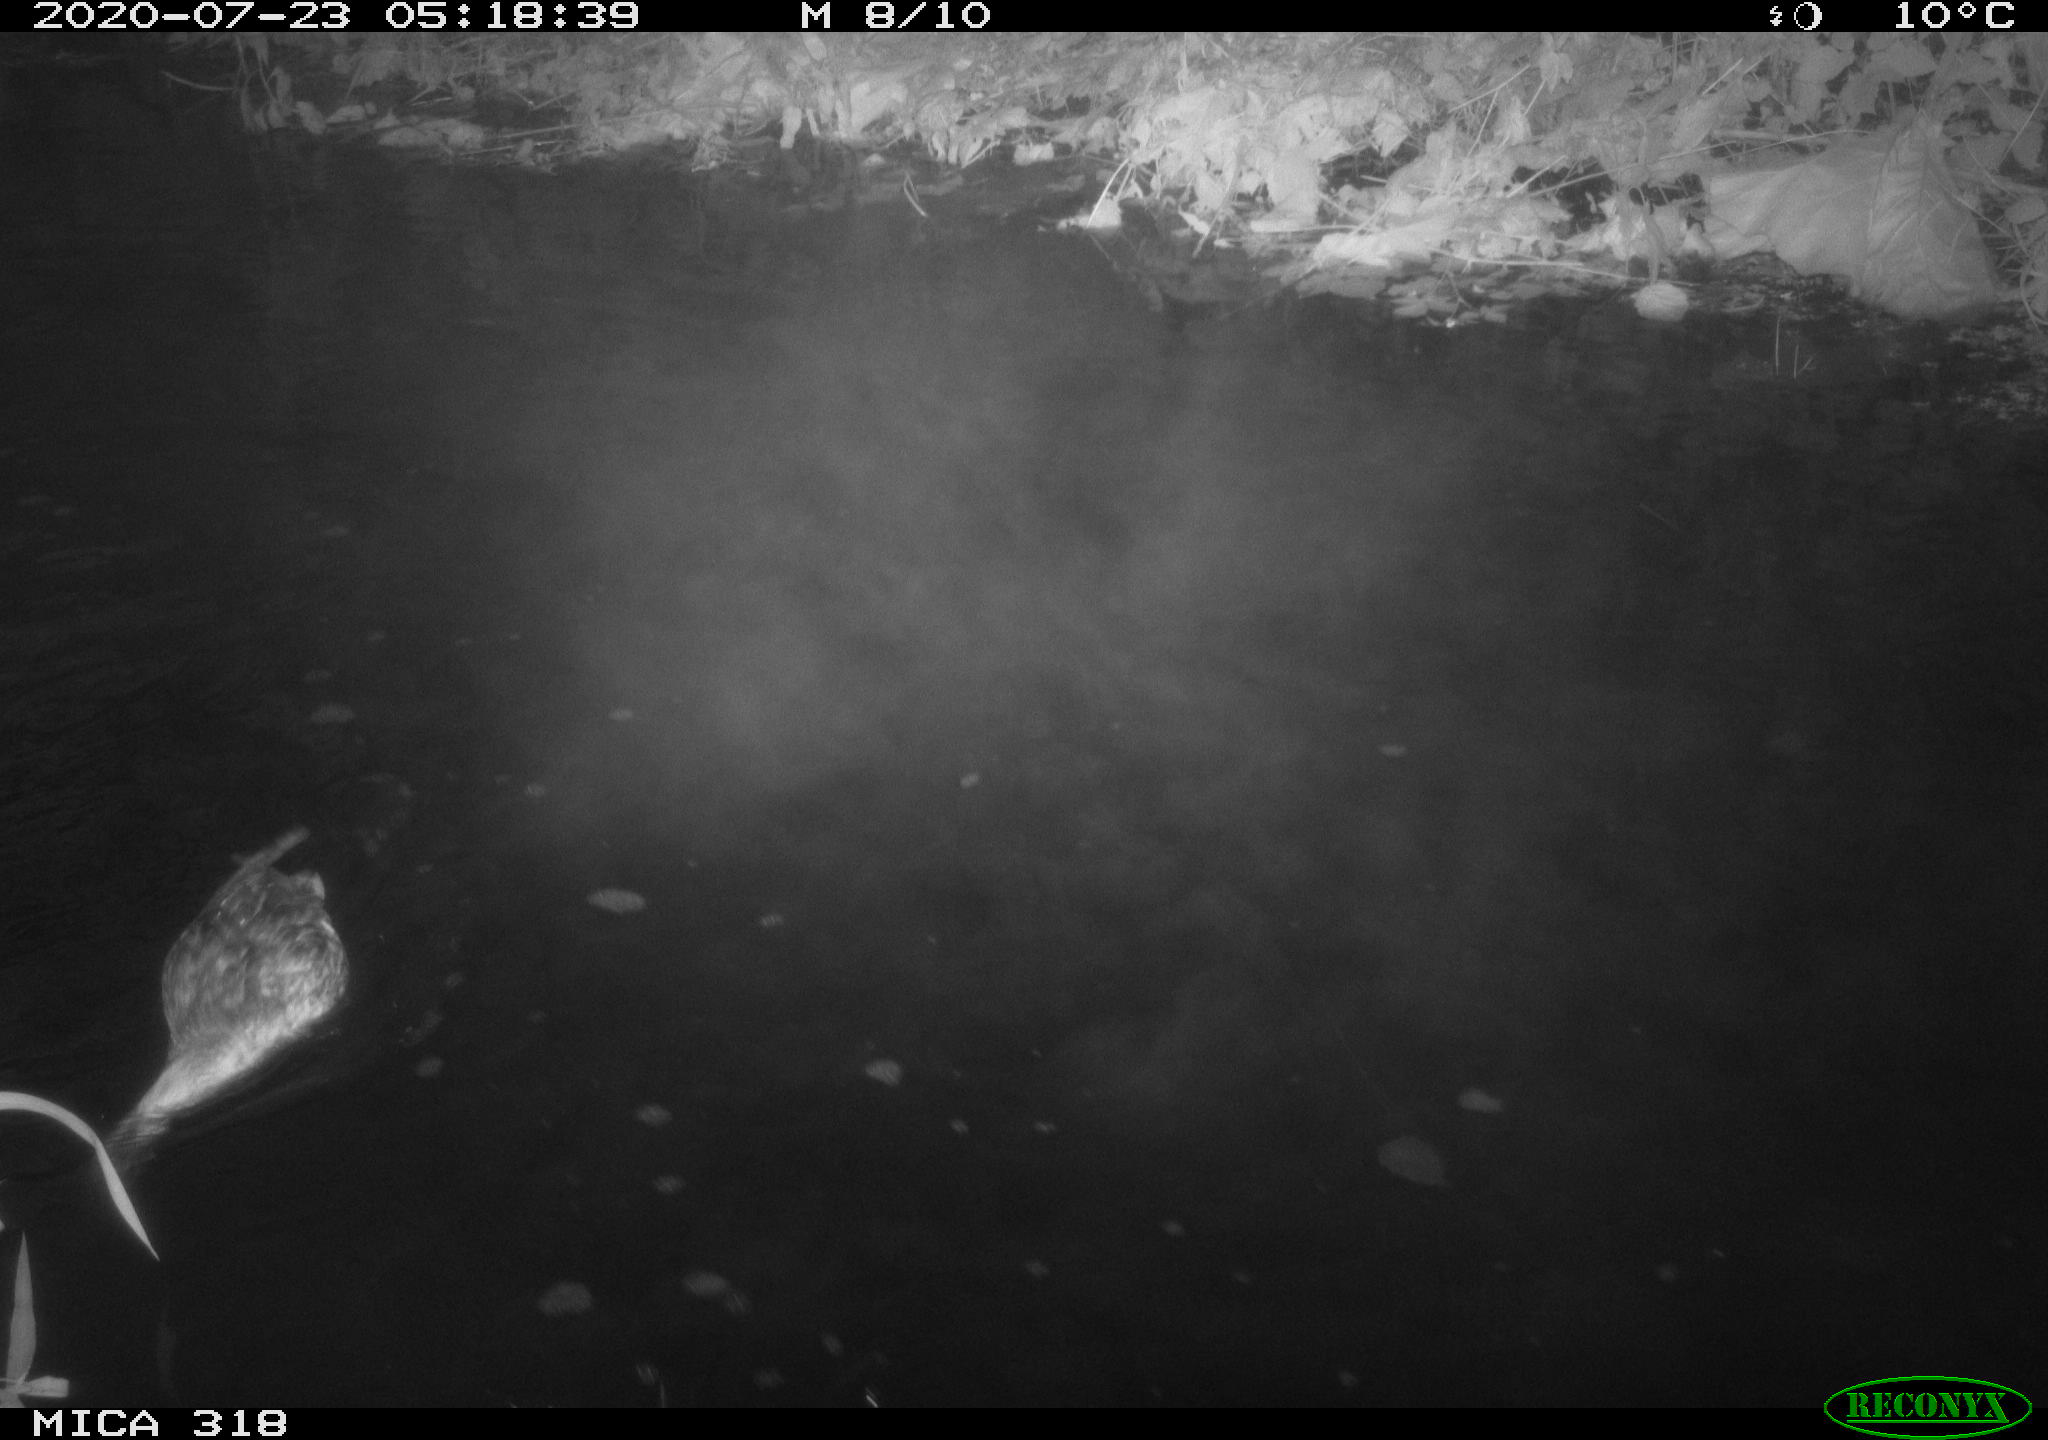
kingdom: Animalia
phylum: Chordata
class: Aves
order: Anseriformes
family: Anatidae
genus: Anas
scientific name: Anas platyrhynchos
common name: Mallard
